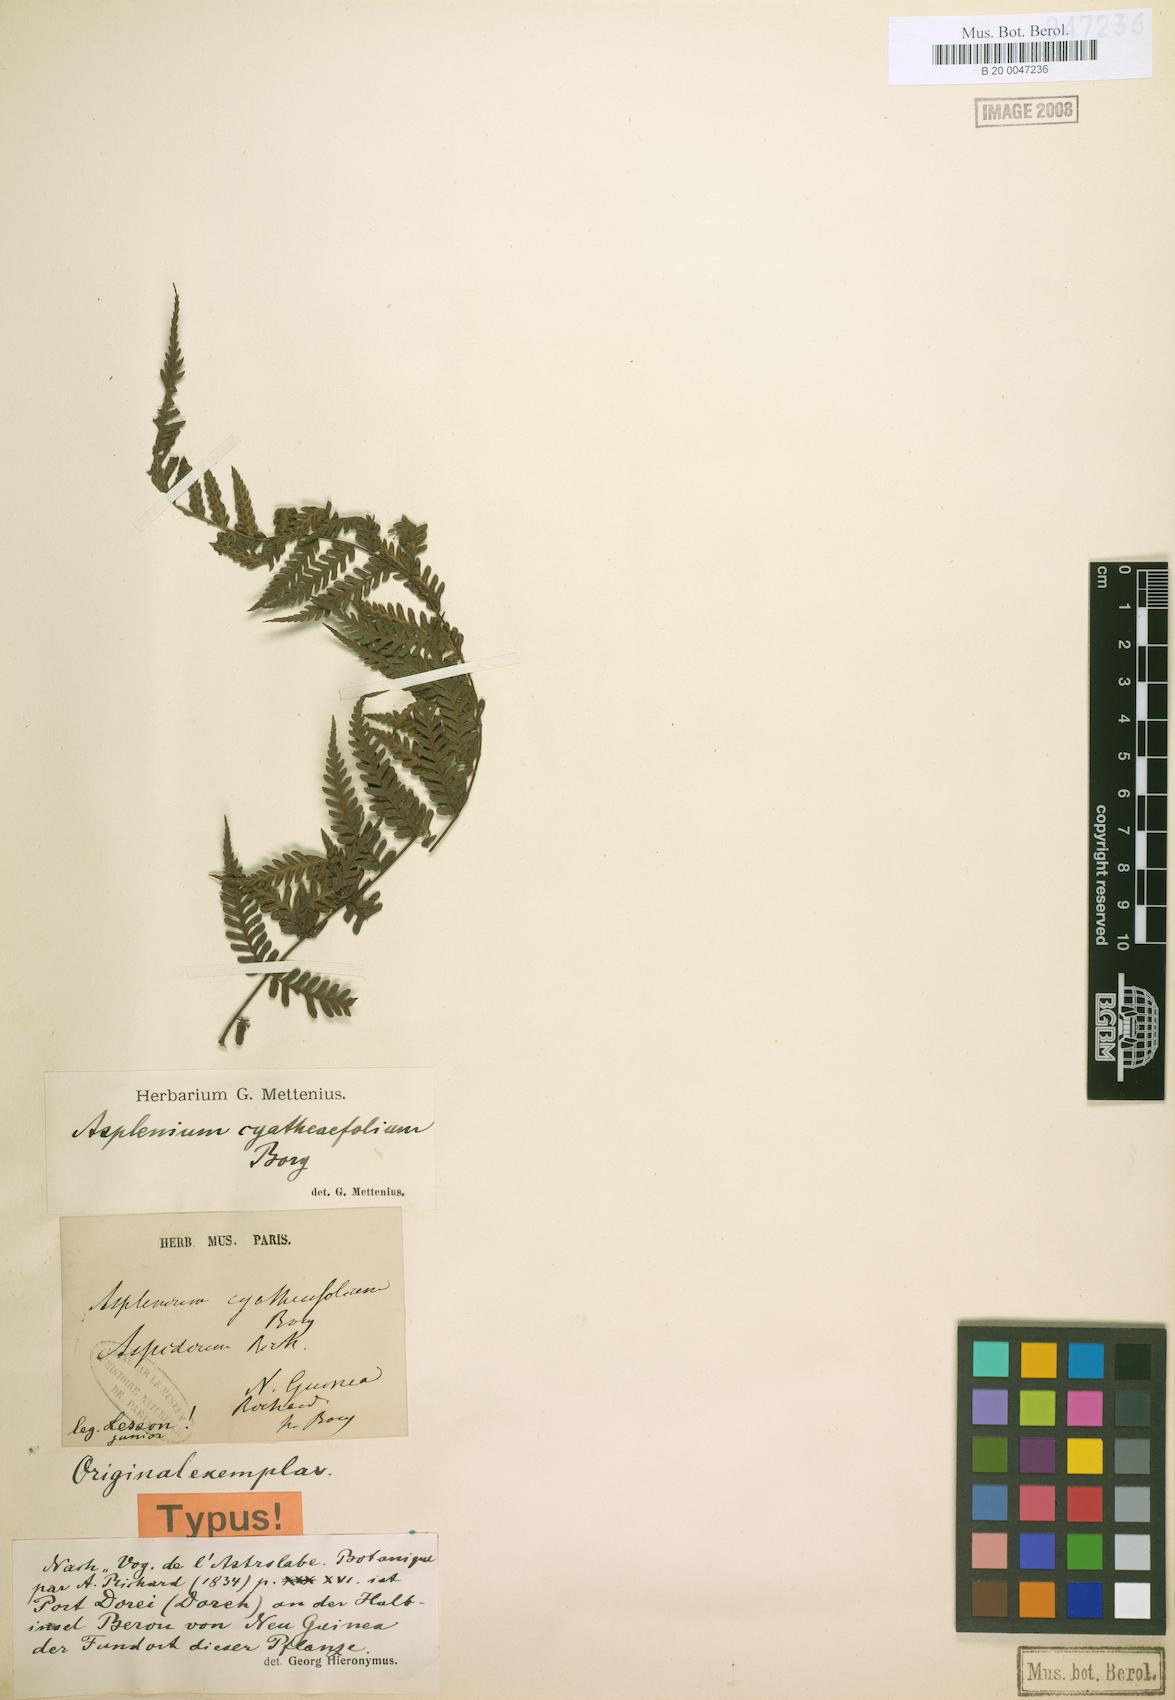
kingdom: Plantae
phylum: Tracheophyta
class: Polypodiopsida
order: Polypodiales
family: Athyriaceae
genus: Diplazium
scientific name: Diplazium cyatheifolium
